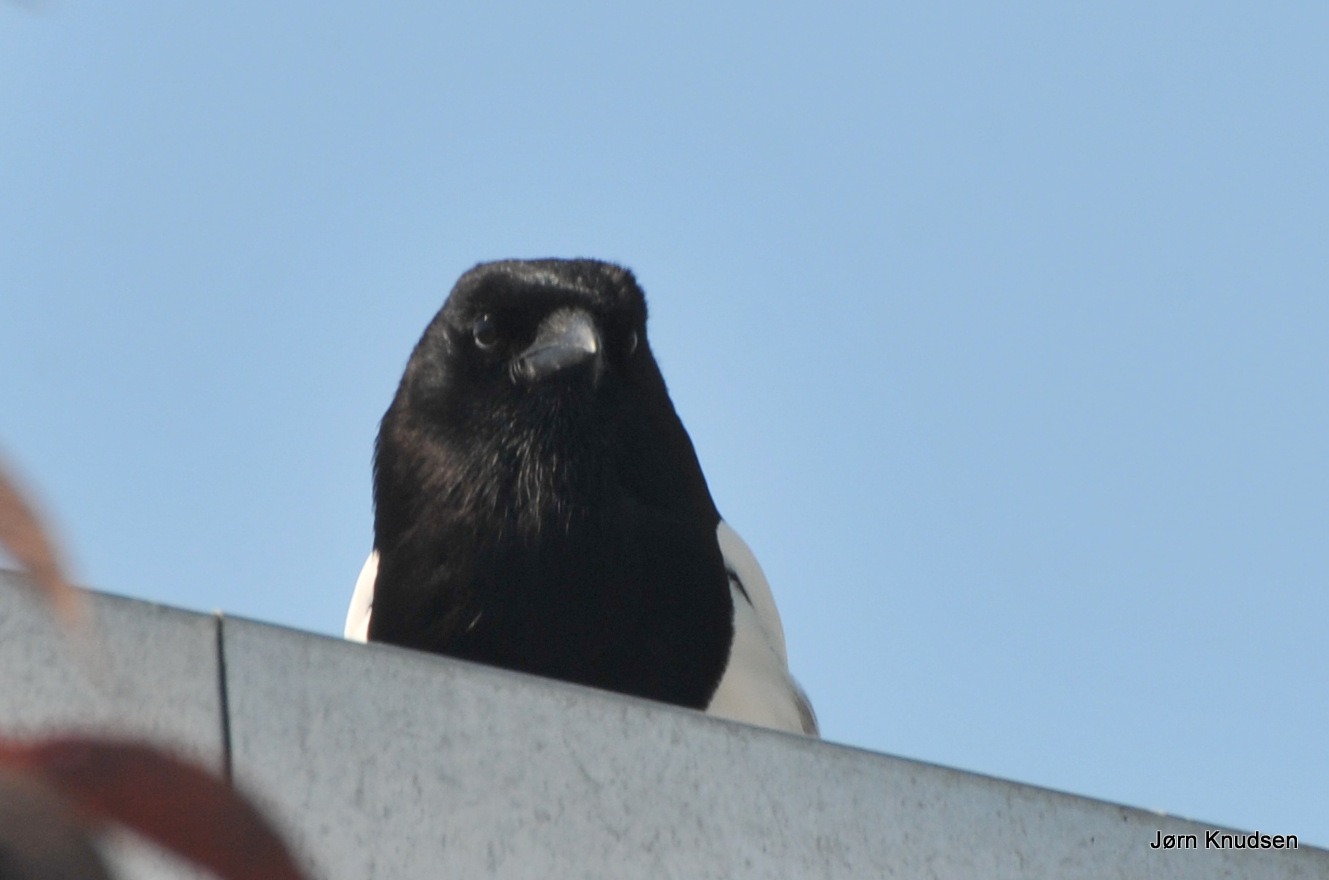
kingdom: Animalia
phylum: Chordata
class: Aves
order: Passeriformes
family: Corvidae
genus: Pica
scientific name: Pica pica
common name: Husskade
